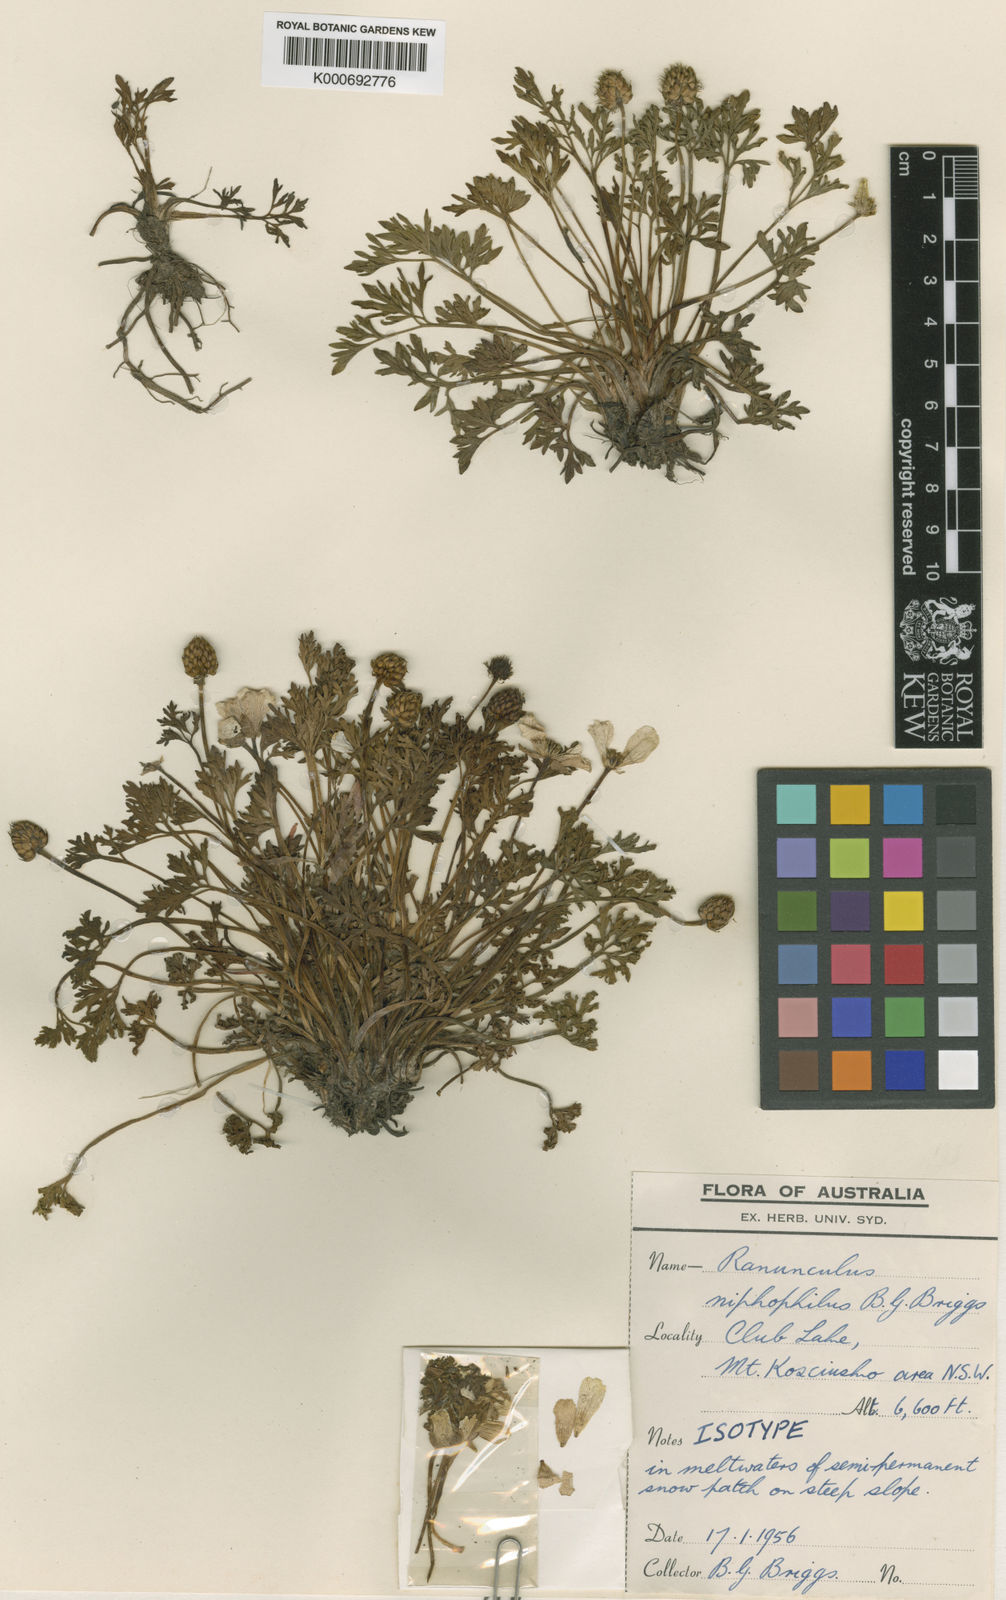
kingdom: Plantae
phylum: Tracheophyta
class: Magnoliopsida
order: Ranunculales
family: Ranunculaceae
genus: Ranunculus
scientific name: Ranunculus niphophilus
